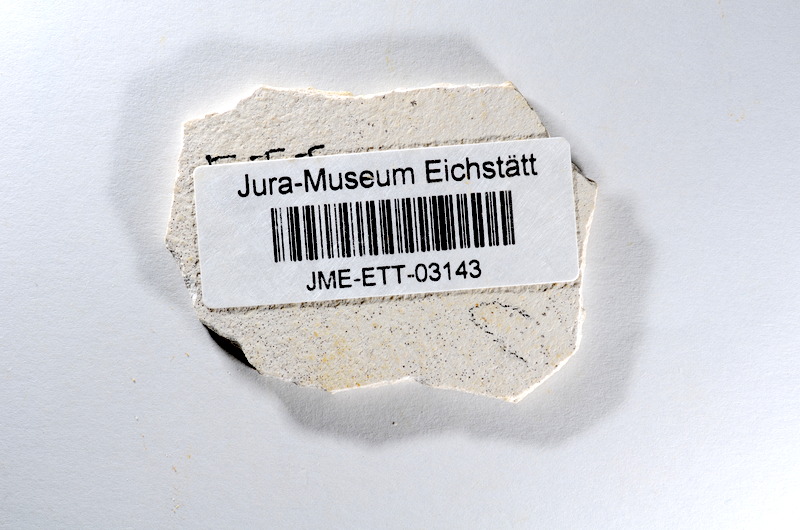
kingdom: Animalia
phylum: Chordata
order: Salmoniformes
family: Orthogonikleithridae
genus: Orthogonikleithrus
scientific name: Orthogonikleithrus hoelli
